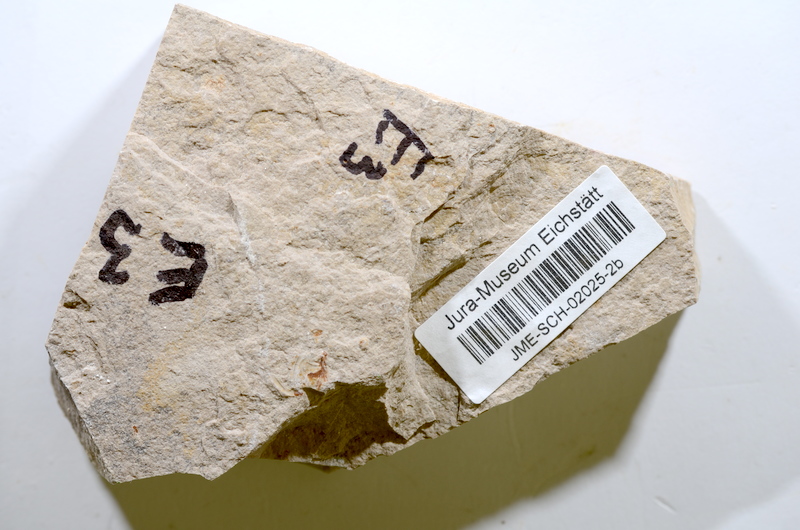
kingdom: Animalia
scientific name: Animalia
